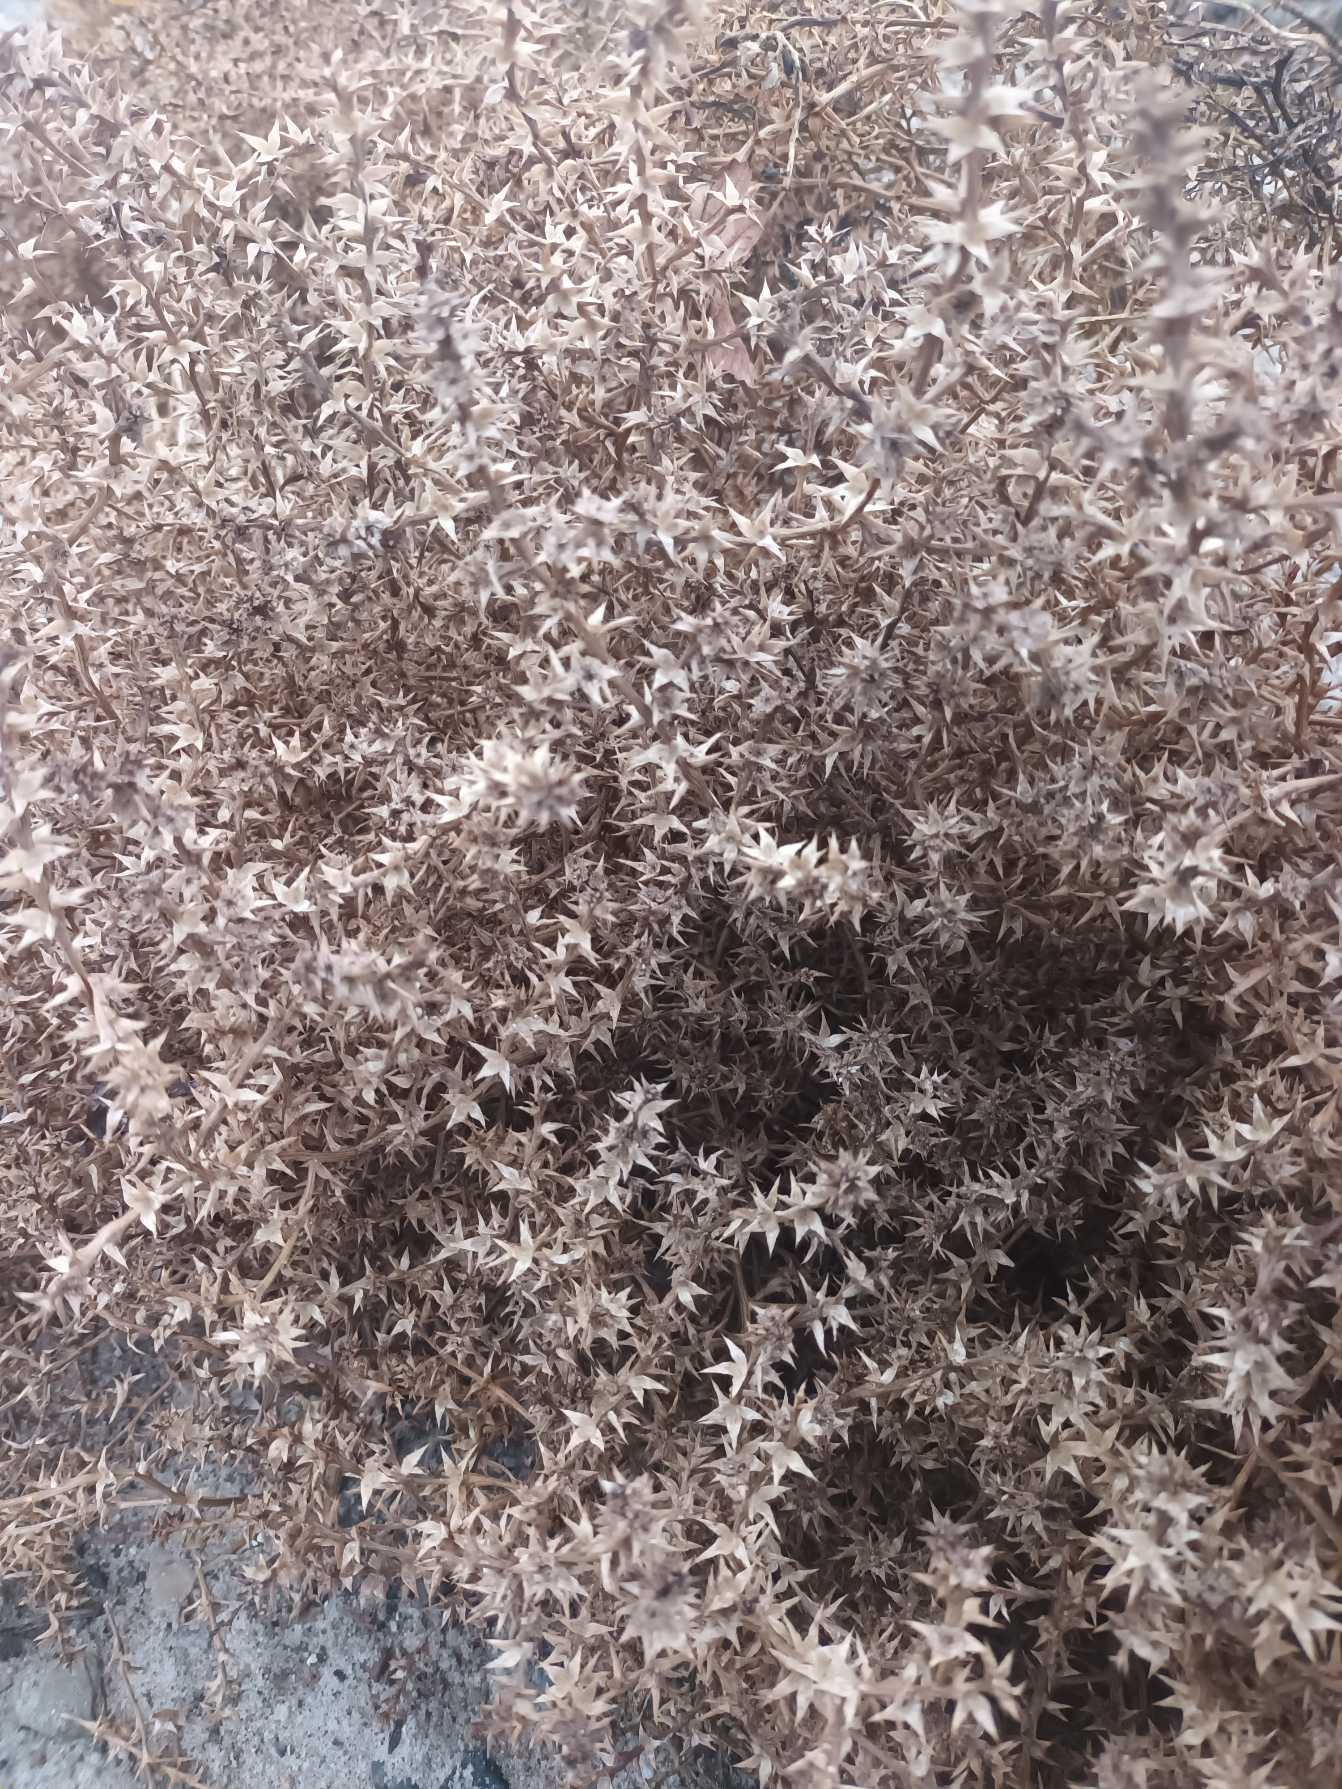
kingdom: Plantae
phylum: Tracheophyta
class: Magnoliopsida
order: Caryophyllales
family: Amaranthaceae
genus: Salsola
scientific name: Salsola kali
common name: Sodaurt
